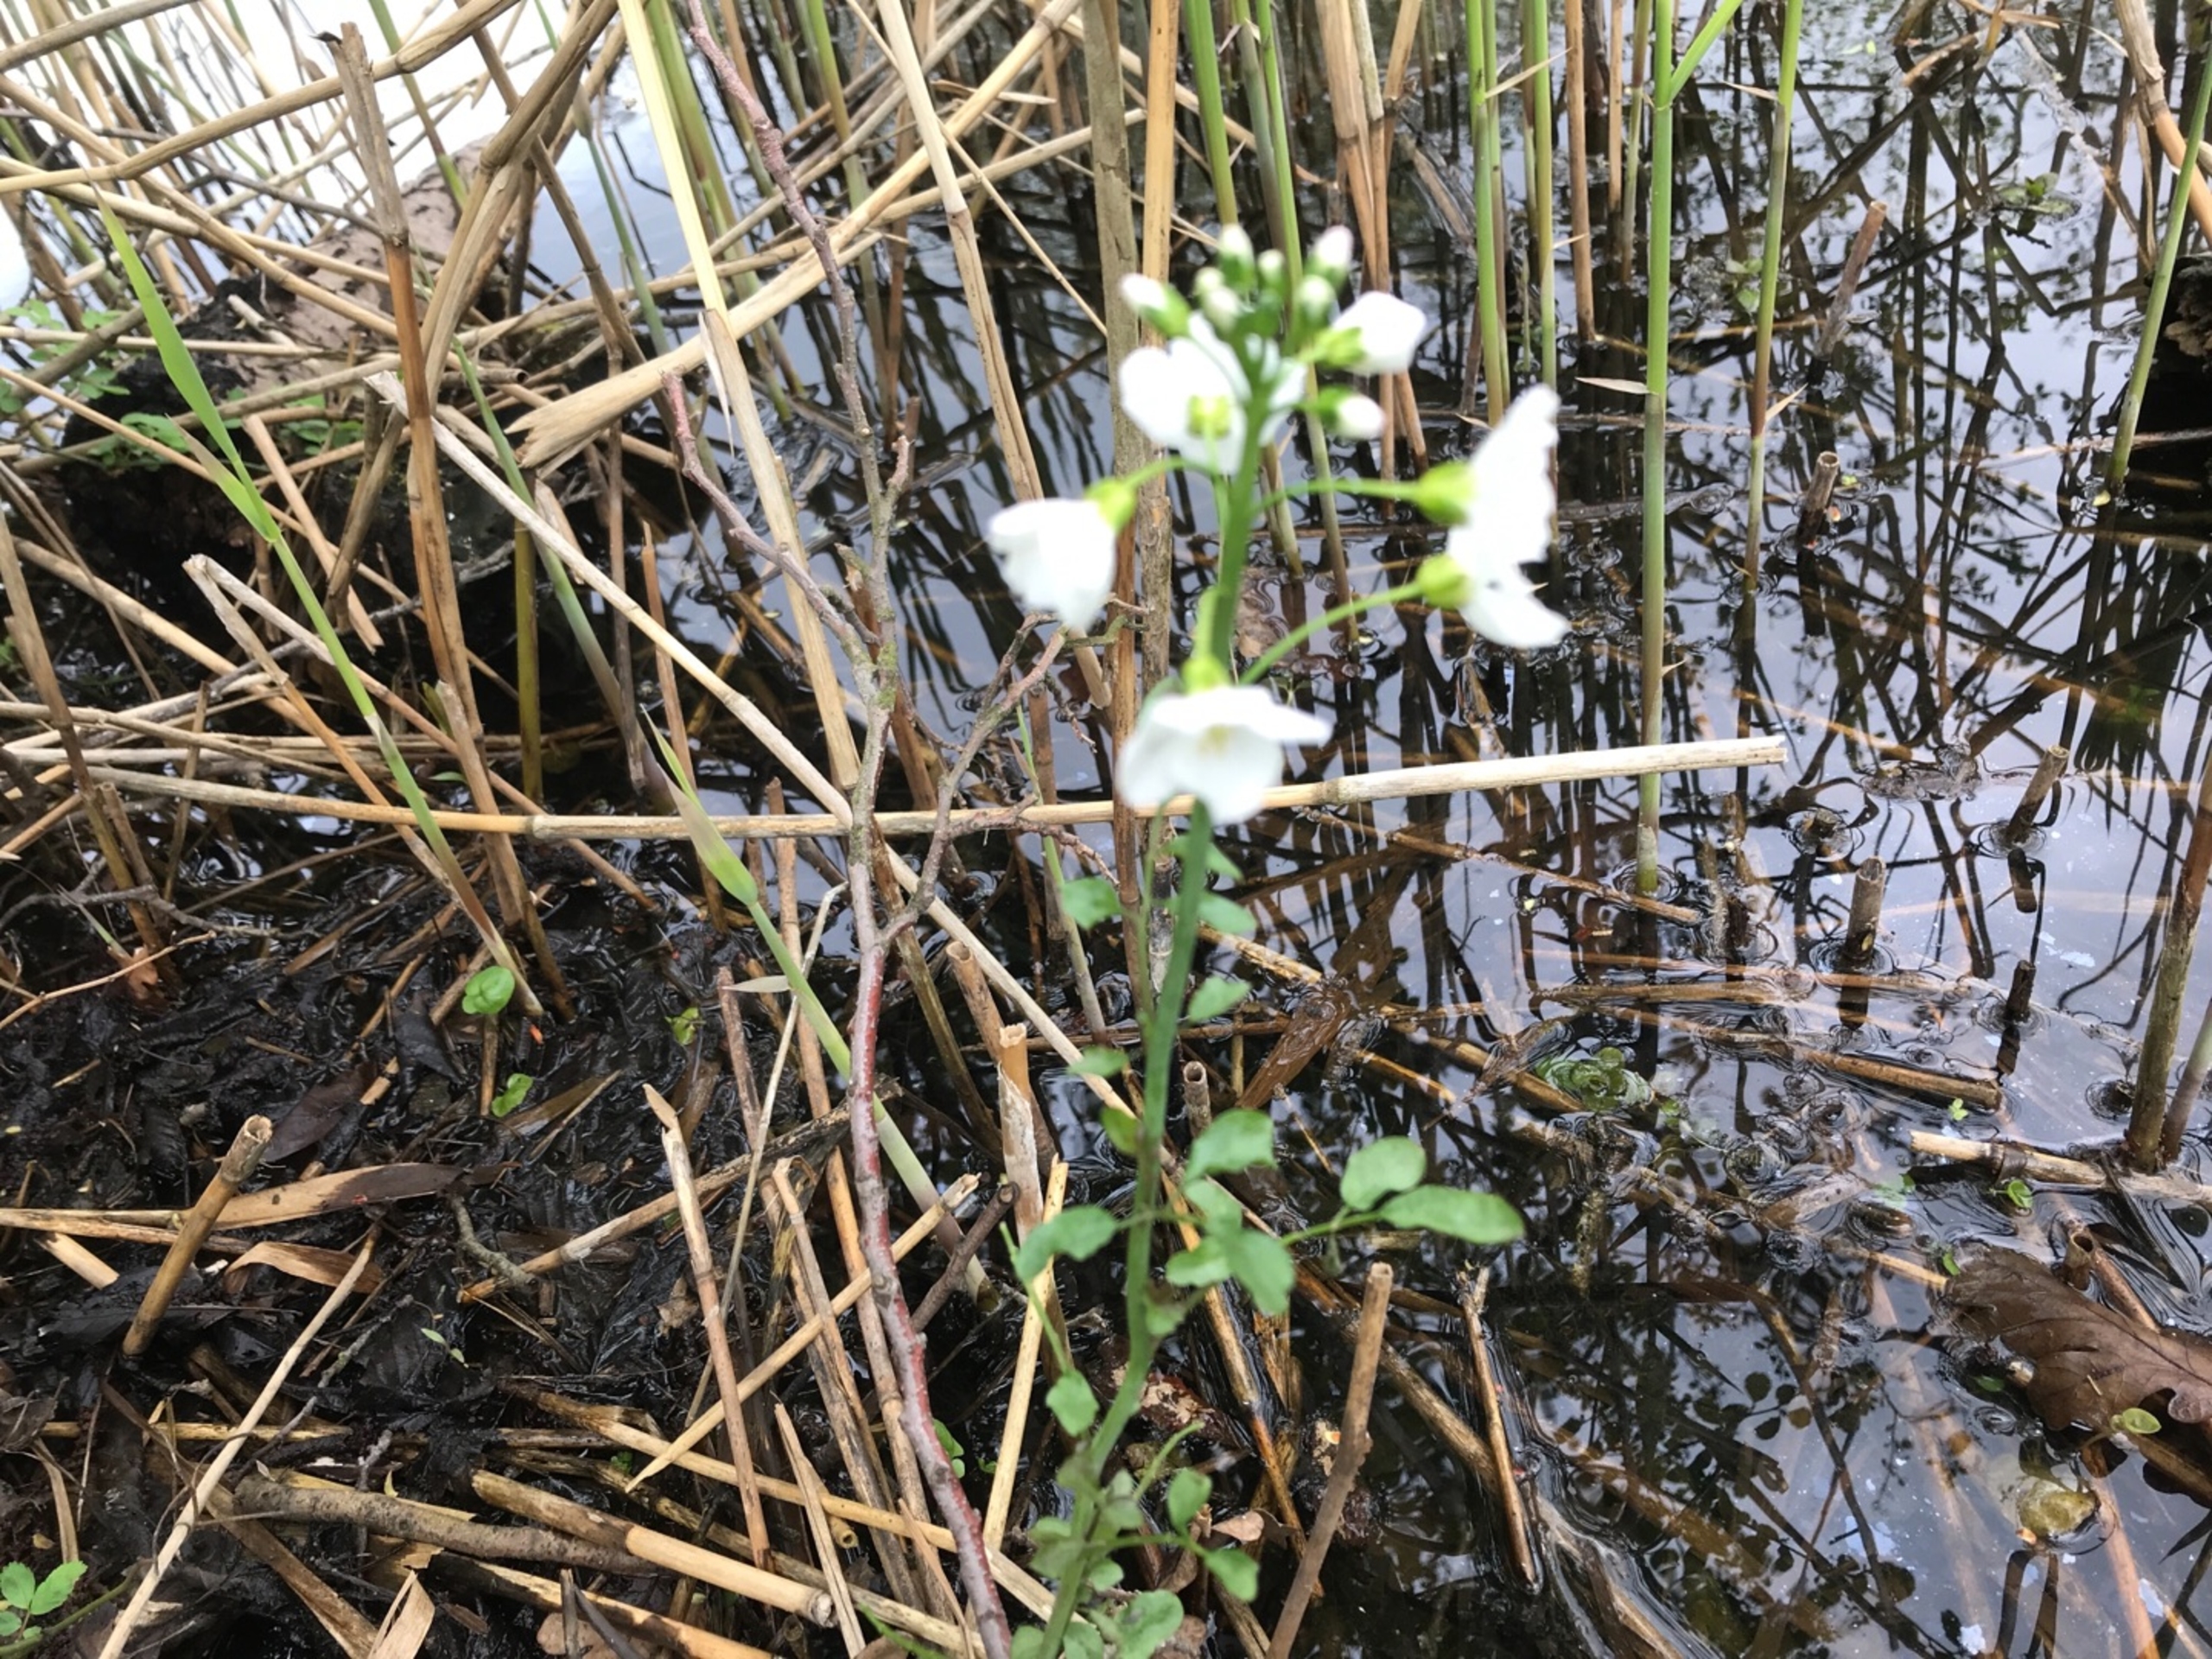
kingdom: Plantae
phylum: Tracheophyta
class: Magnoliopsida
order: Brassicales
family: Brassicaceae
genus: Cardamine
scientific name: Cardamine pratensis
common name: Sumpkarse
